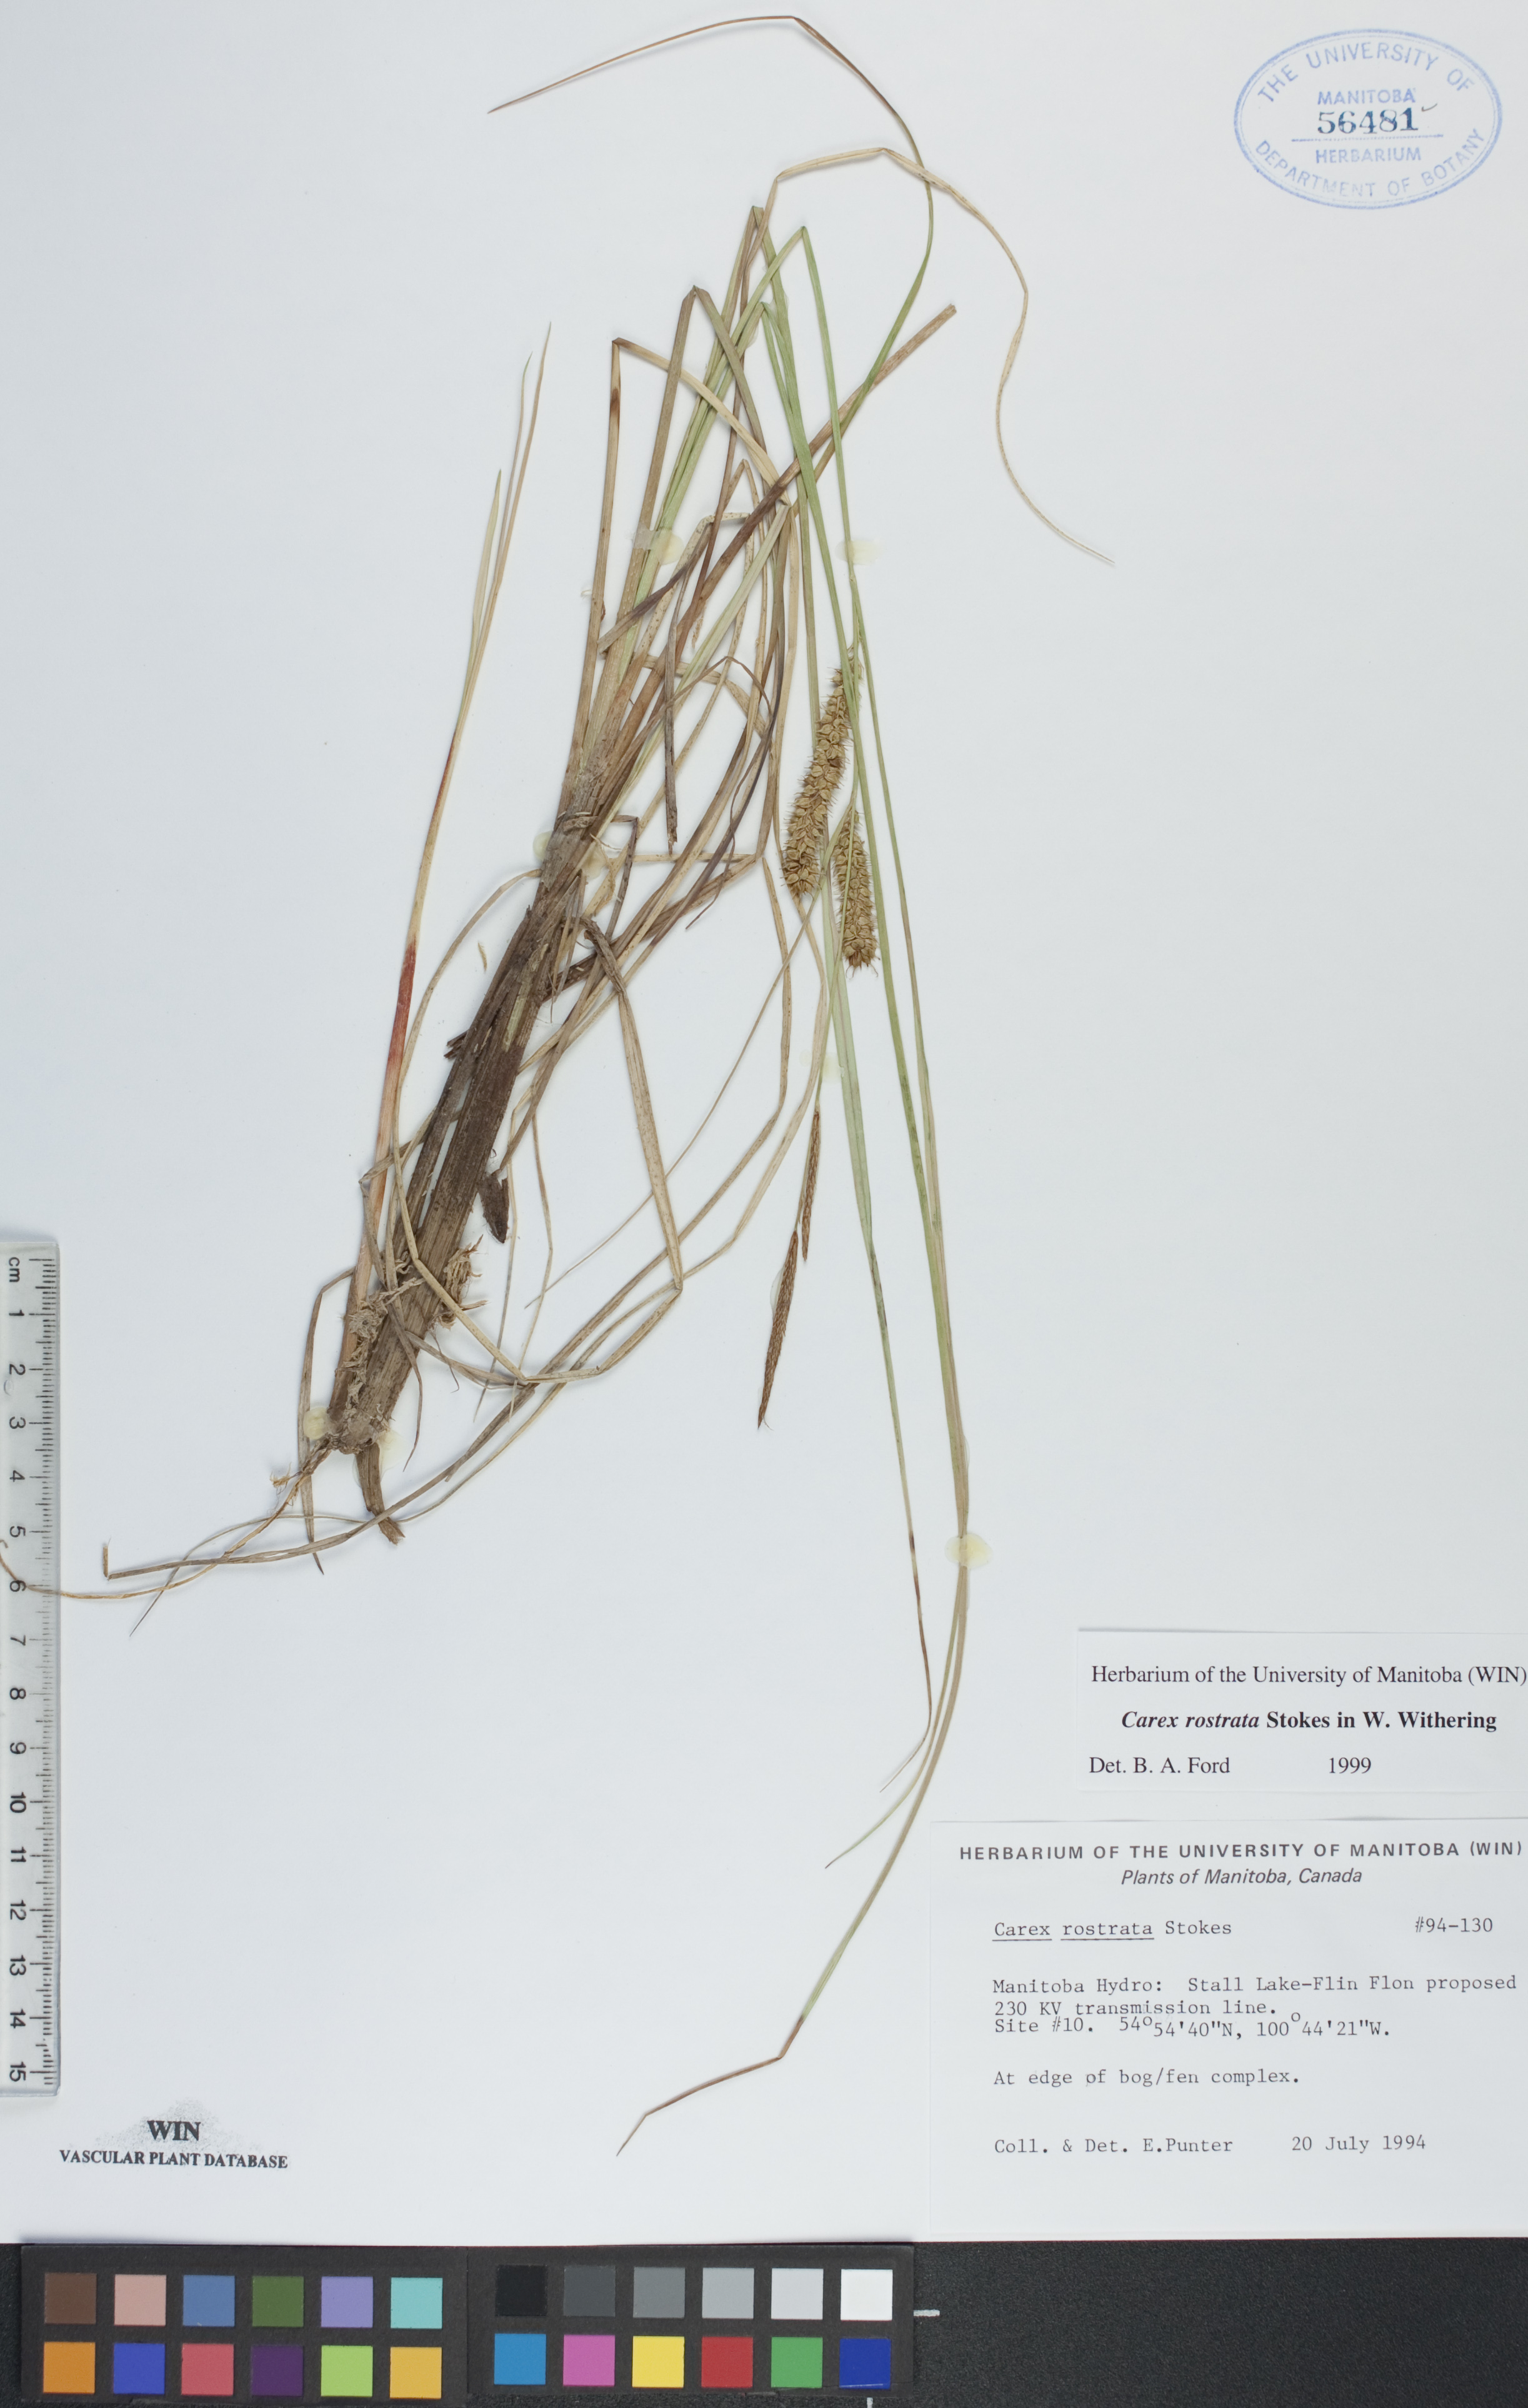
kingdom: Plantae
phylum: Tracheophyta
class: Liliopsida
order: Poales
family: Cyperaceae
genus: Carex
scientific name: Carex rostrata
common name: Bottle sedge
